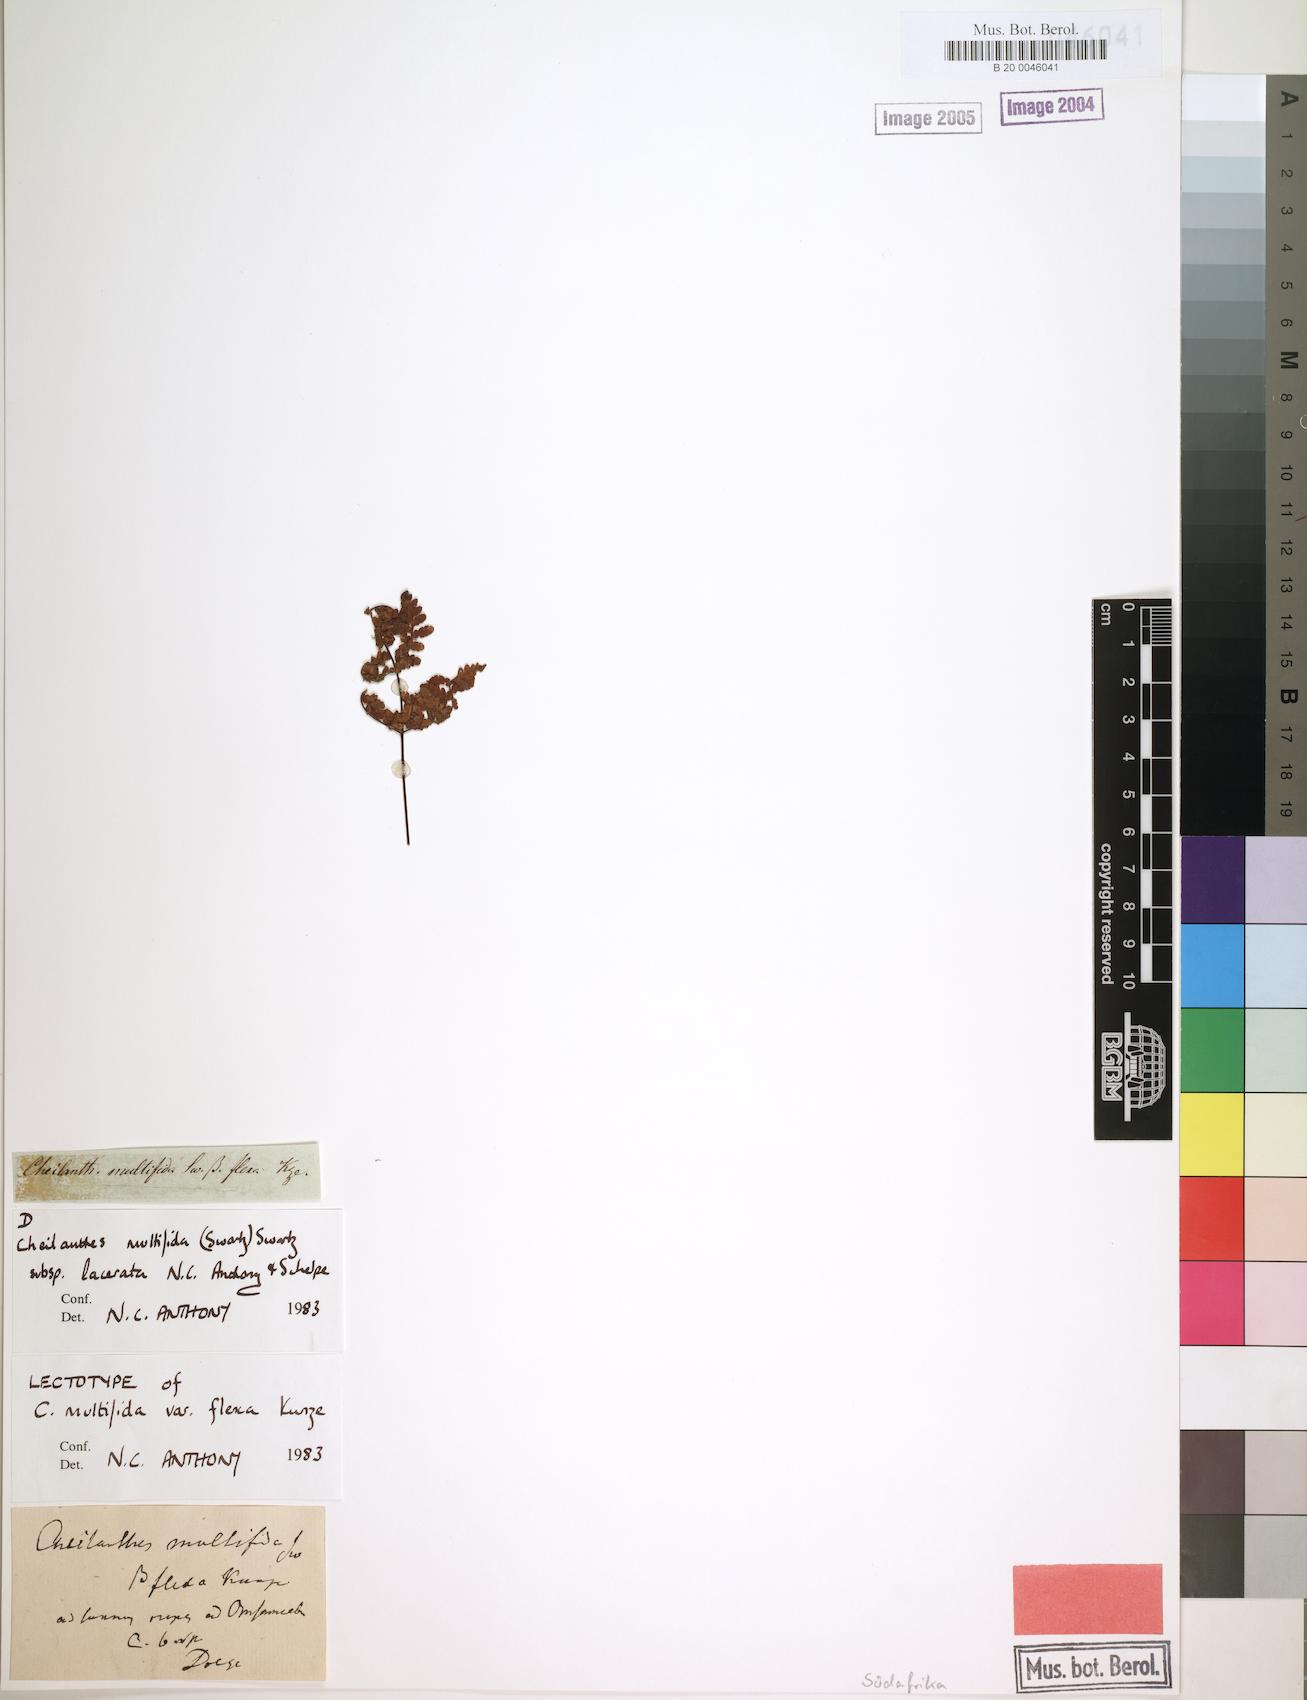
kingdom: Plantae
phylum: Tracheophyta
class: Polypodiopsida
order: Polypodiales
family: Pteridaceae
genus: Cheilanthes
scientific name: Cheilanthes multifida
